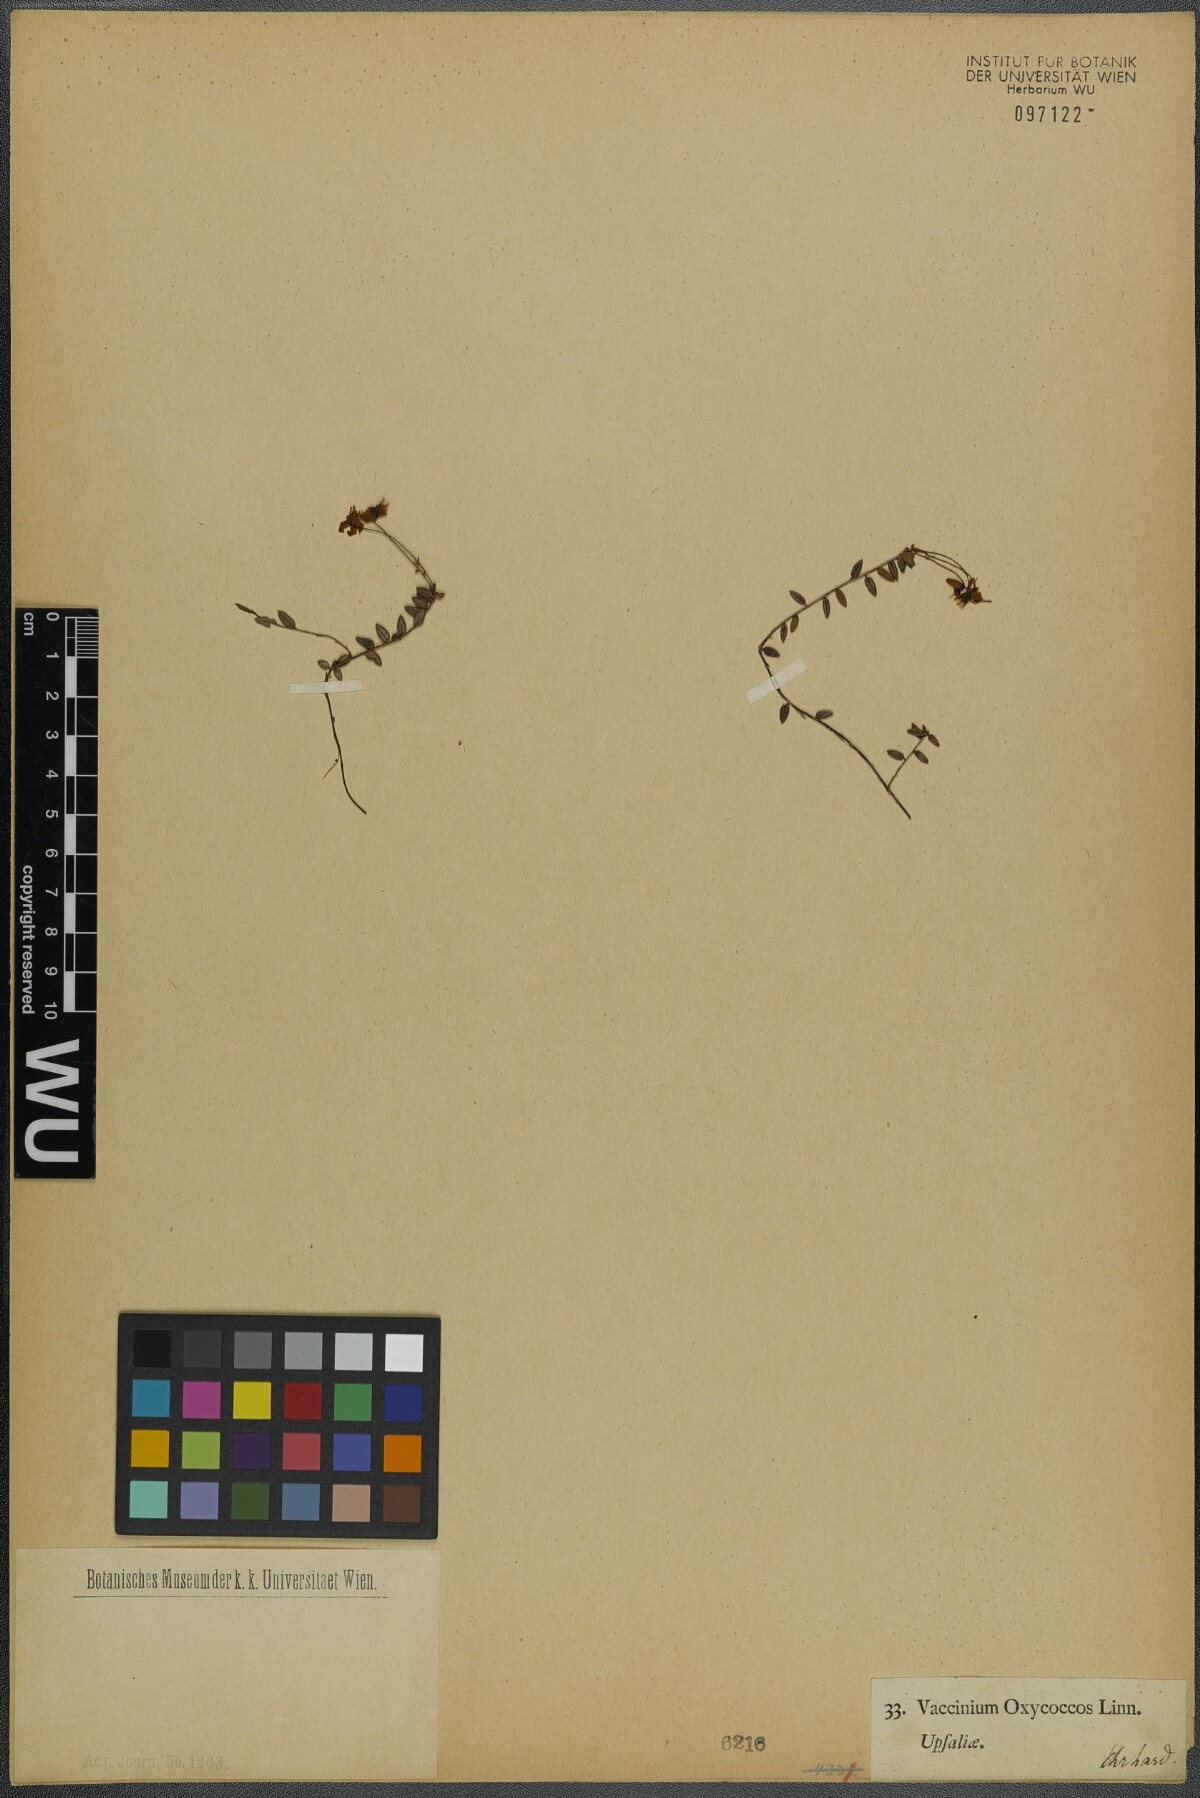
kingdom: Plantae
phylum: Tracheophyta
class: Magnoliopsida
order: Ericales
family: Ericaceae
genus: Vaccinium
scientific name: Vaccinium oxycoccos
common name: Cranberry
